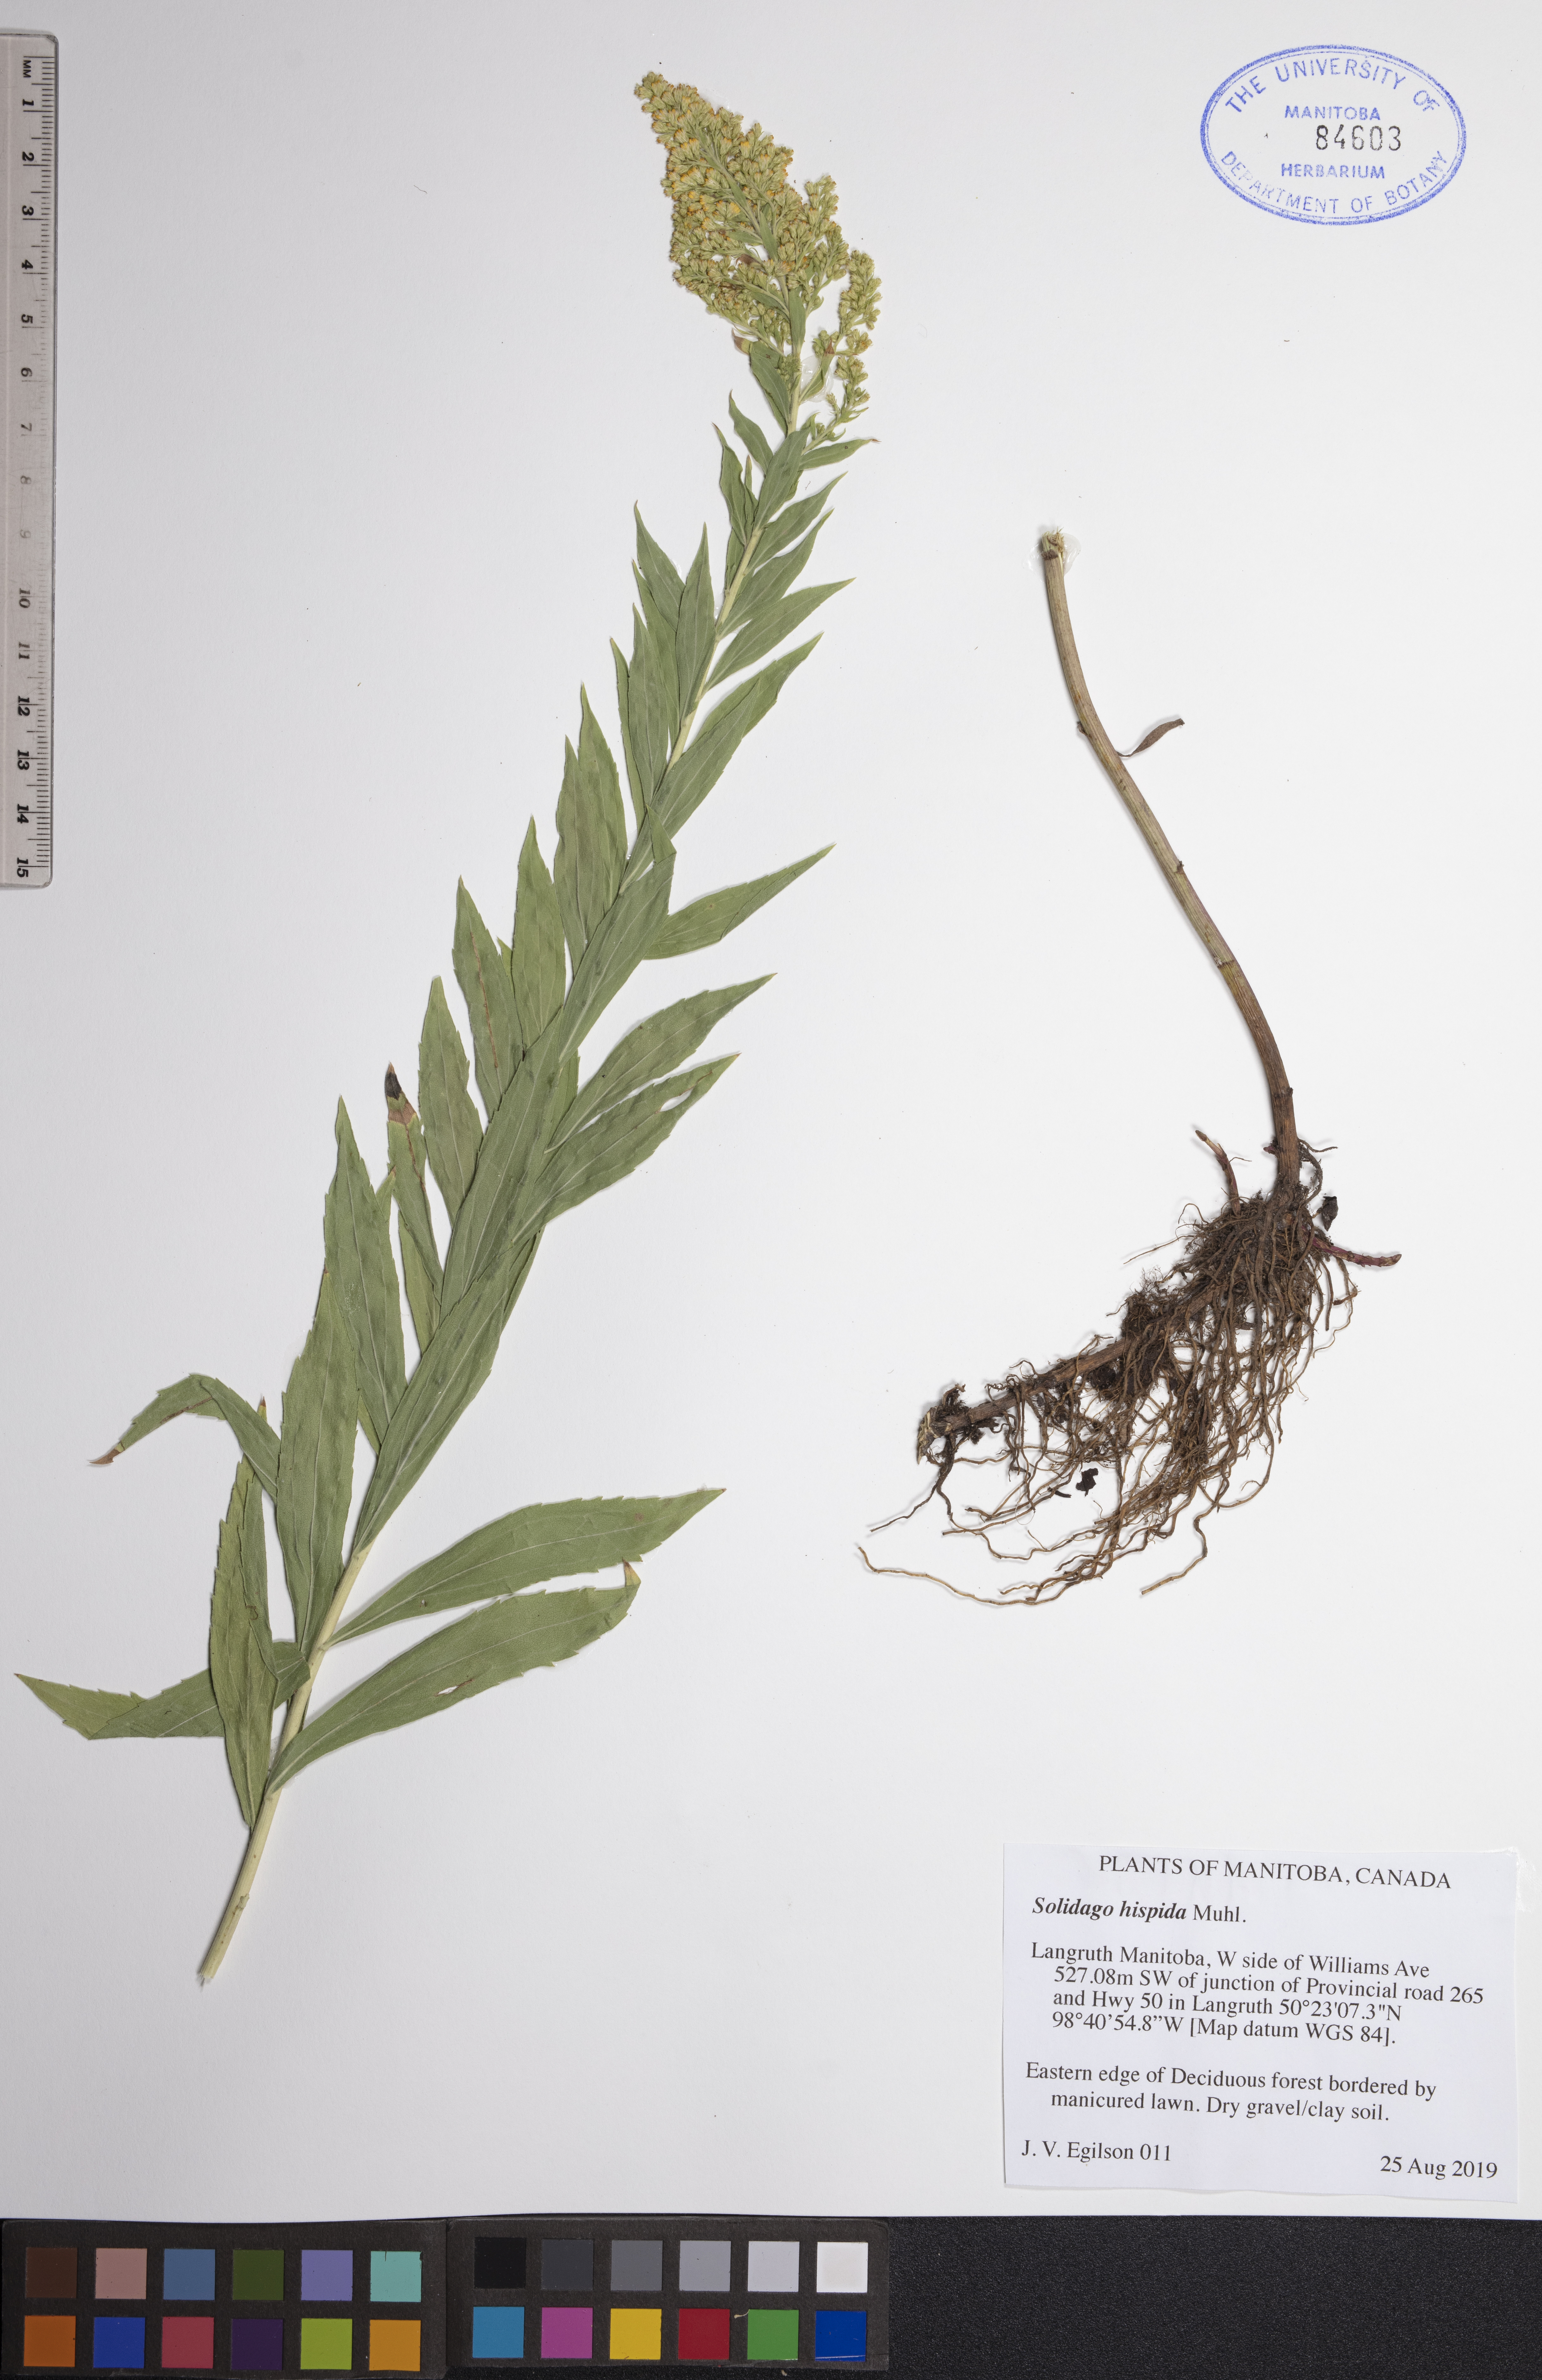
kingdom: Plantae
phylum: Tracheophyta
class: Magnoliopsida
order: Asterales
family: Asteraceae
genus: Solidago
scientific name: Solidago hispida
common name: Hairy goldenrod
